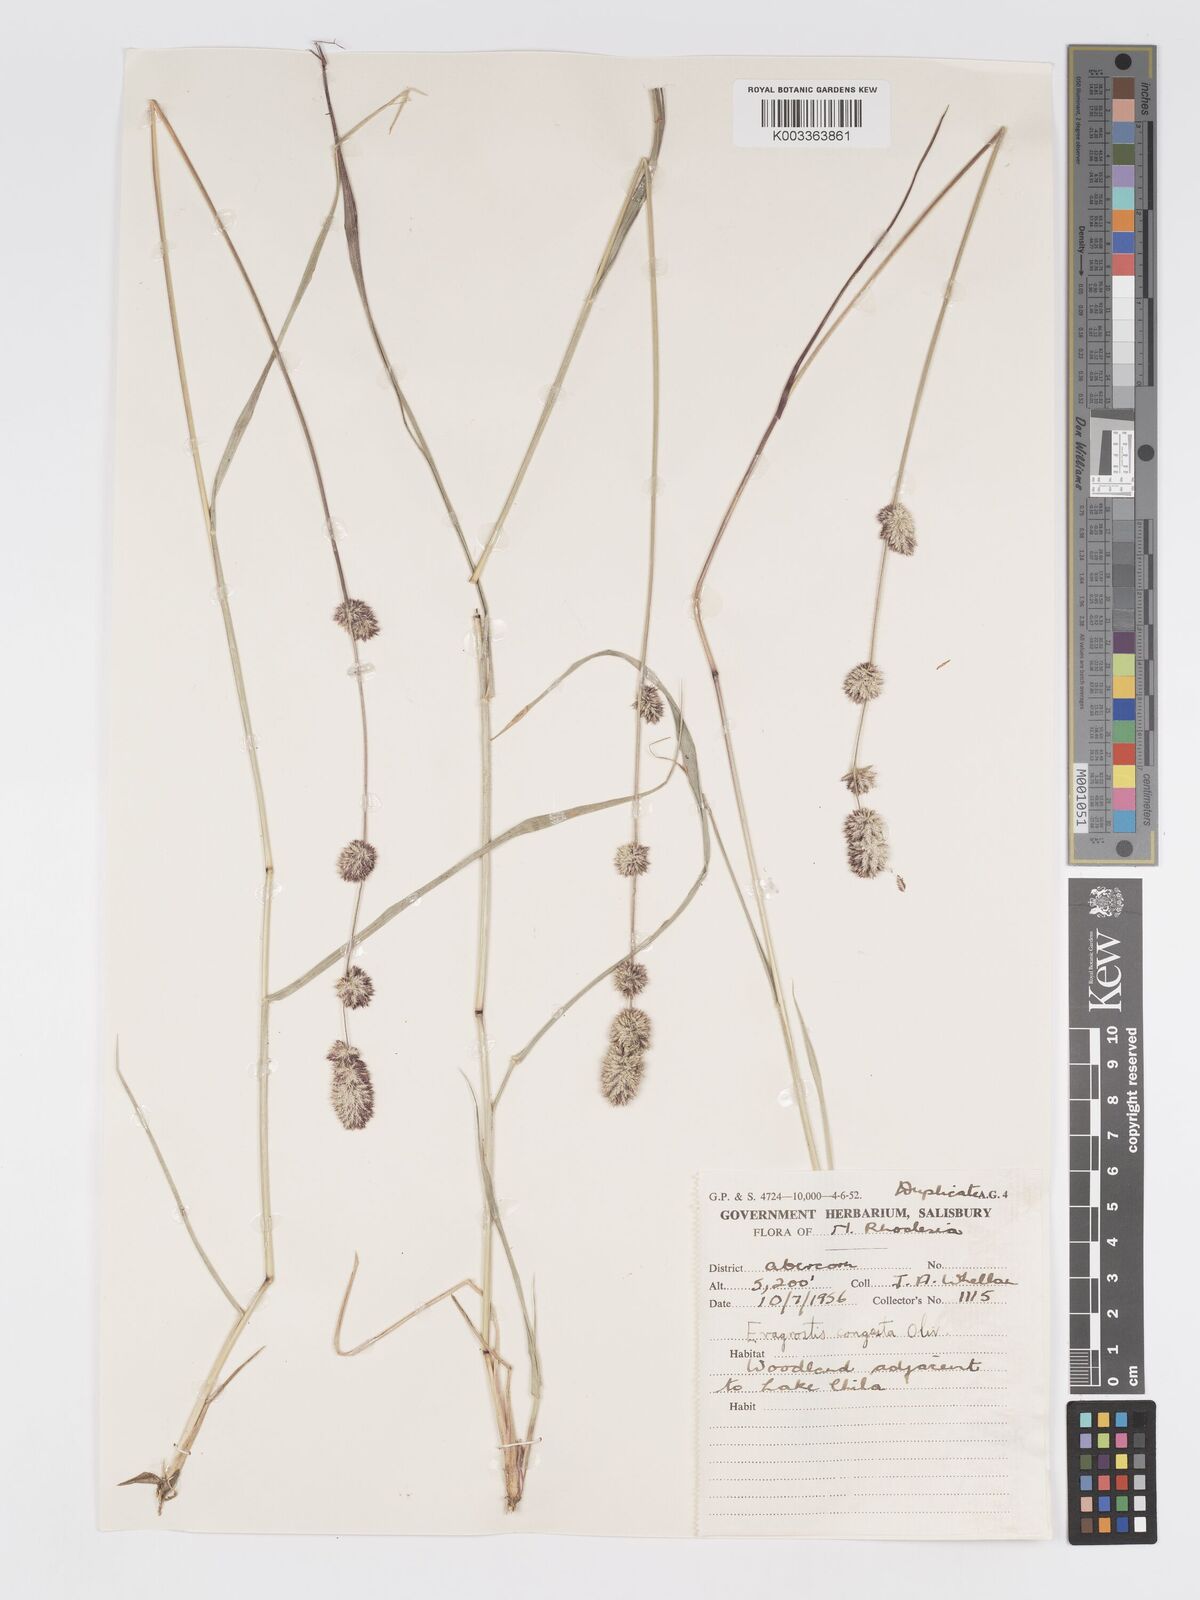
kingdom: Plantae
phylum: Tracheophyta
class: Liliopsida
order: Poales
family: Poaceae
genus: Eragrostis
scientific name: Eragrostis congesta
